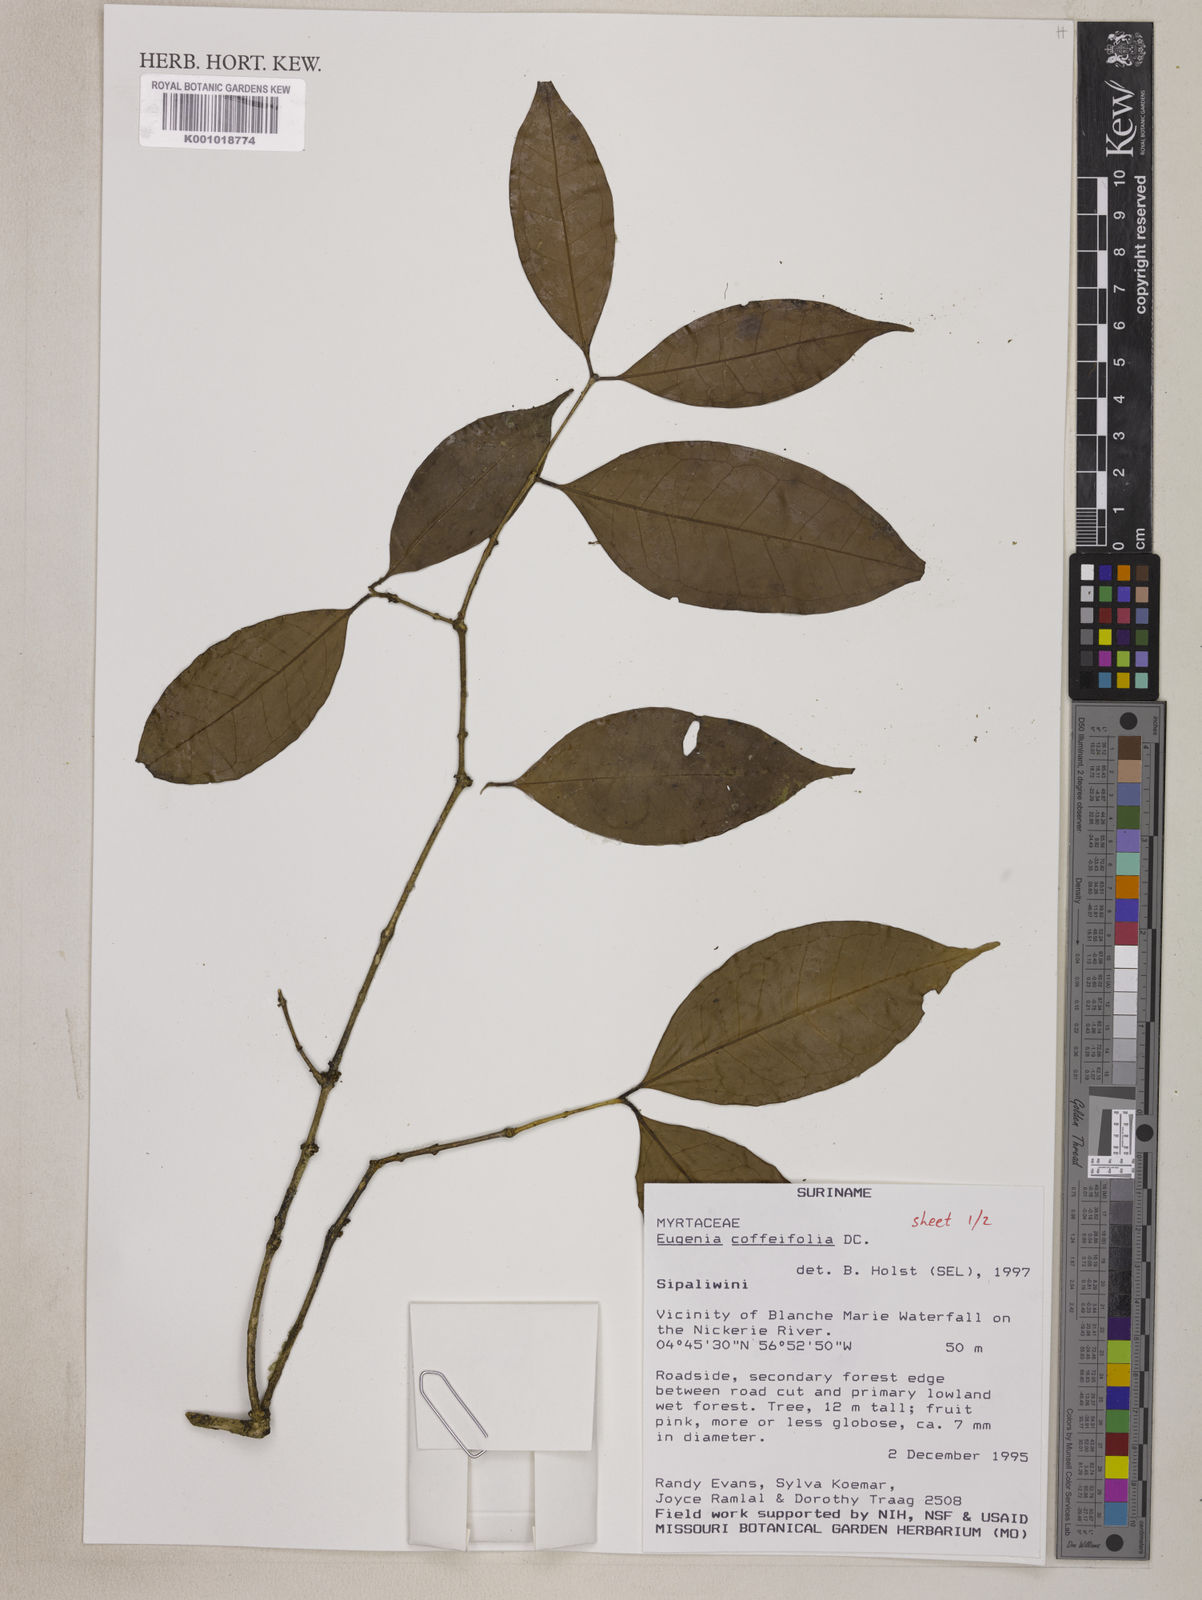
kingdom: Plantae
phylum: Tracheophyta
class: Magnoliopsida
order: Myrtales
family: Myrtaceae
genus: Eugenia
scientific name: Eugenia coffeifolia
